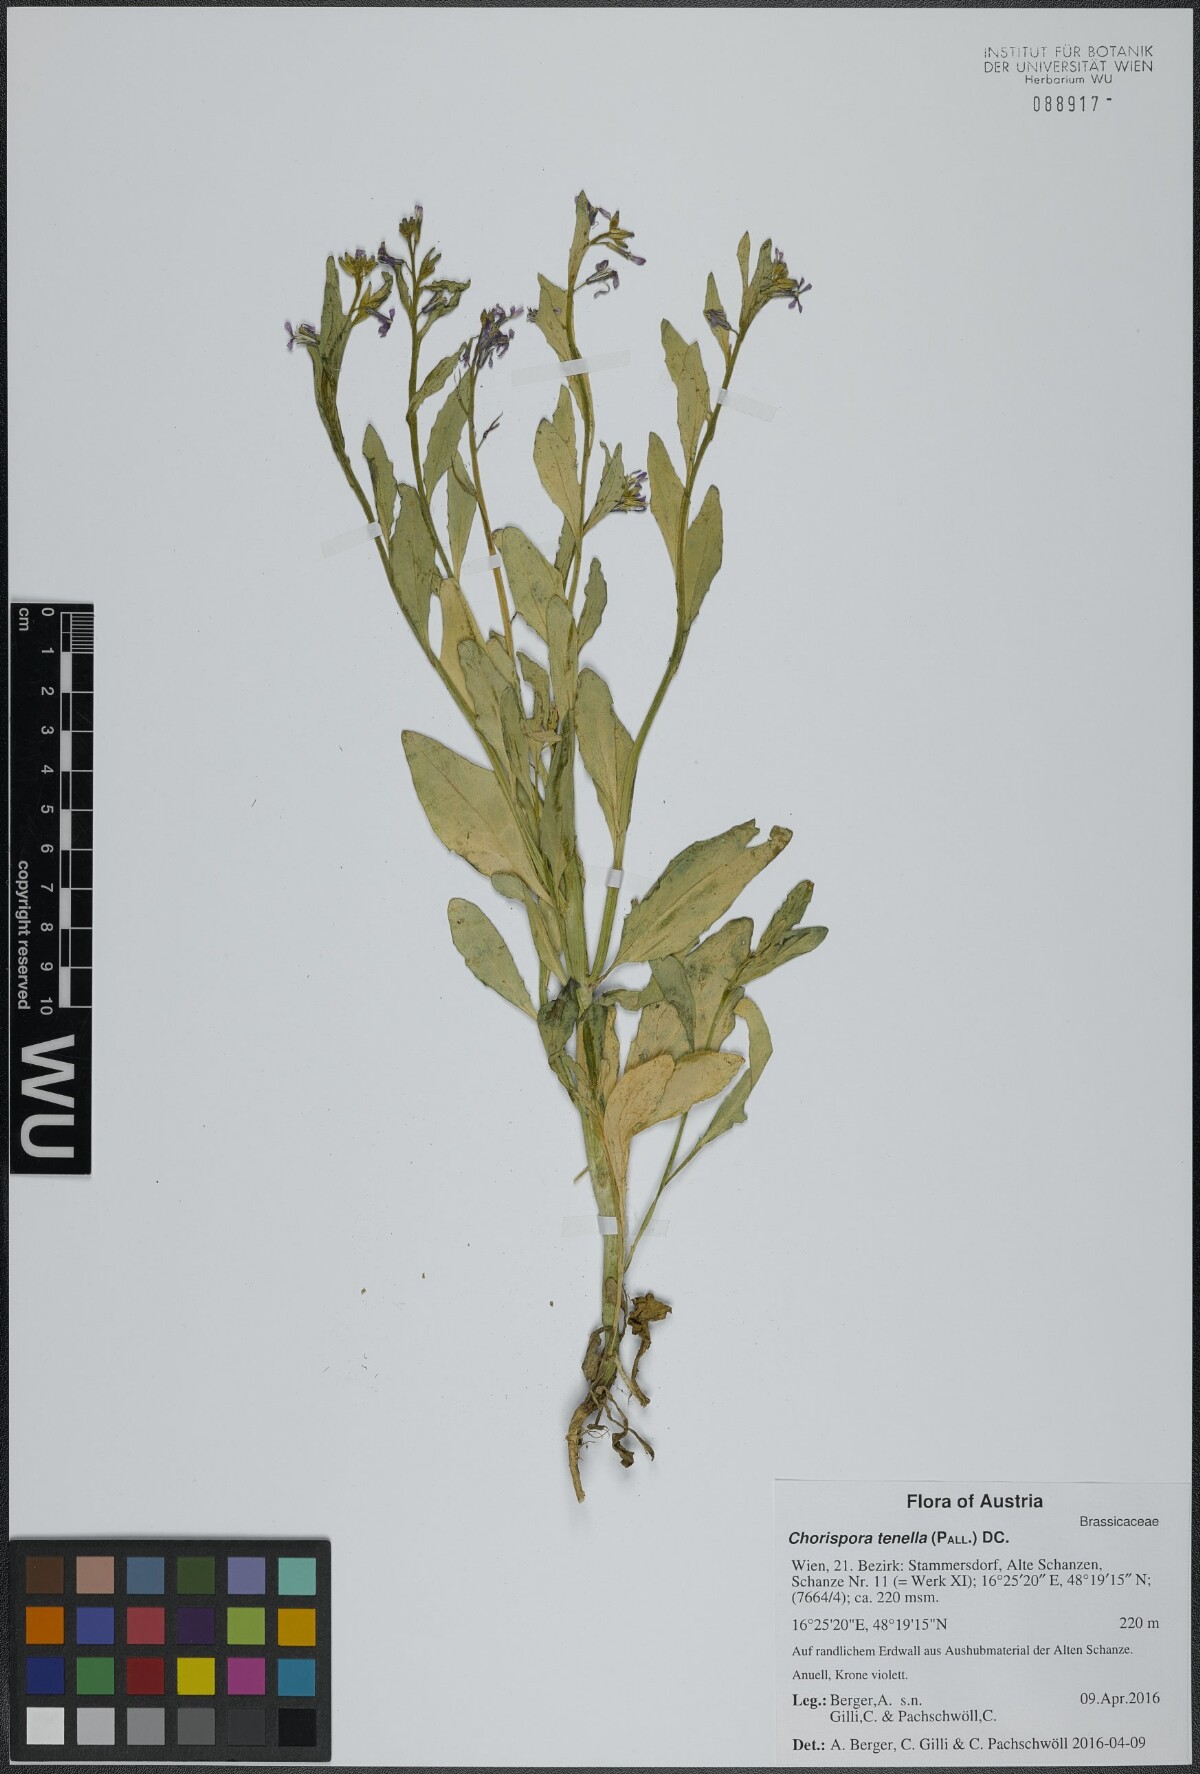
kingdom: Plantae
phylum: Tracheophyta
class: Magnoliopsida
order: Brassicales
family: Brassicaceae
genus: Chorispora
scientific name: Chorispora tenella
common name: Crossflower
